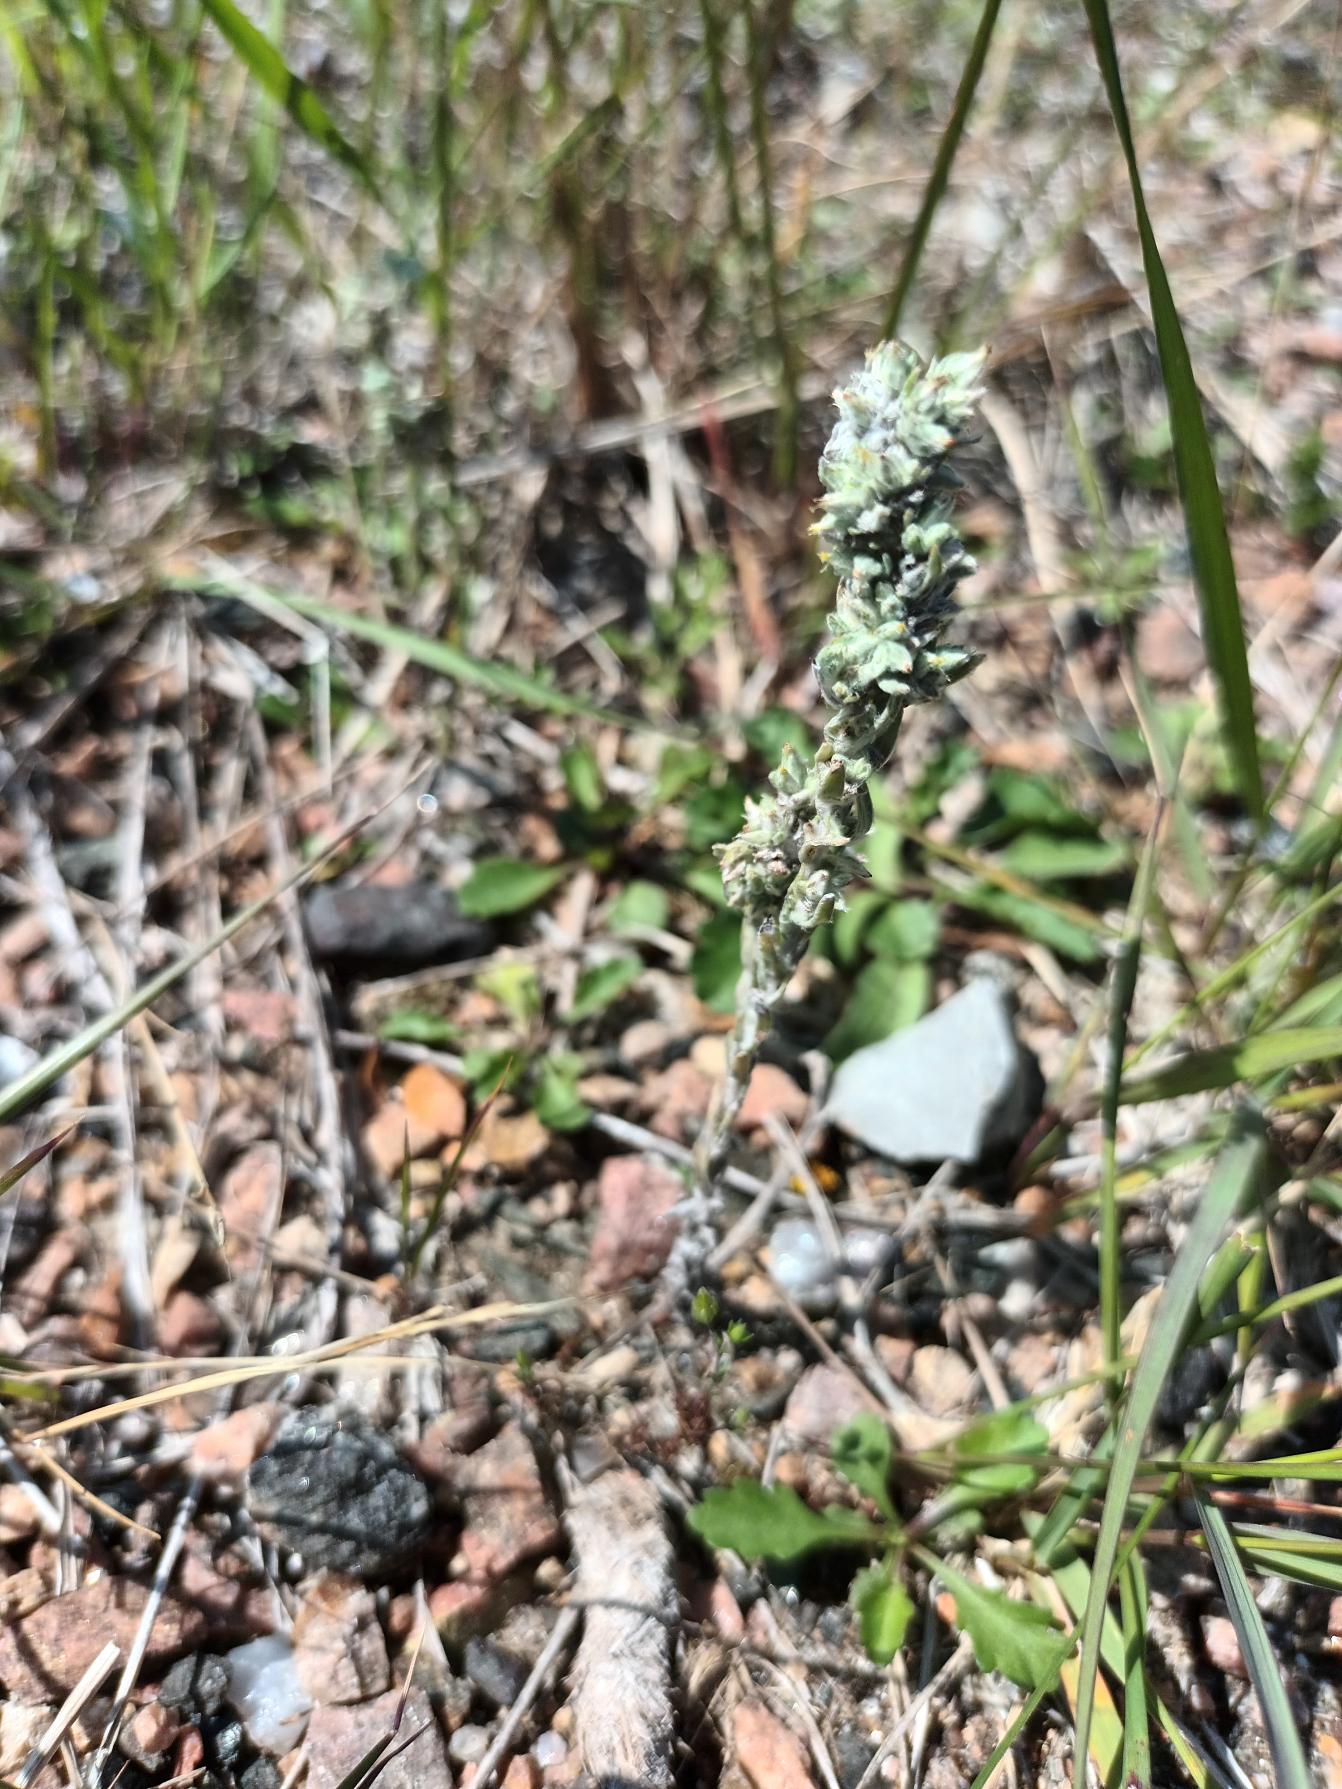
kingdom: Plantae
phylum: Tracheophyta
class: Magnoliopsida
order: Asterales
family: Asteraceae
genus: Filago
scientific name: Filago arvensis
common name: Ager-museurt
